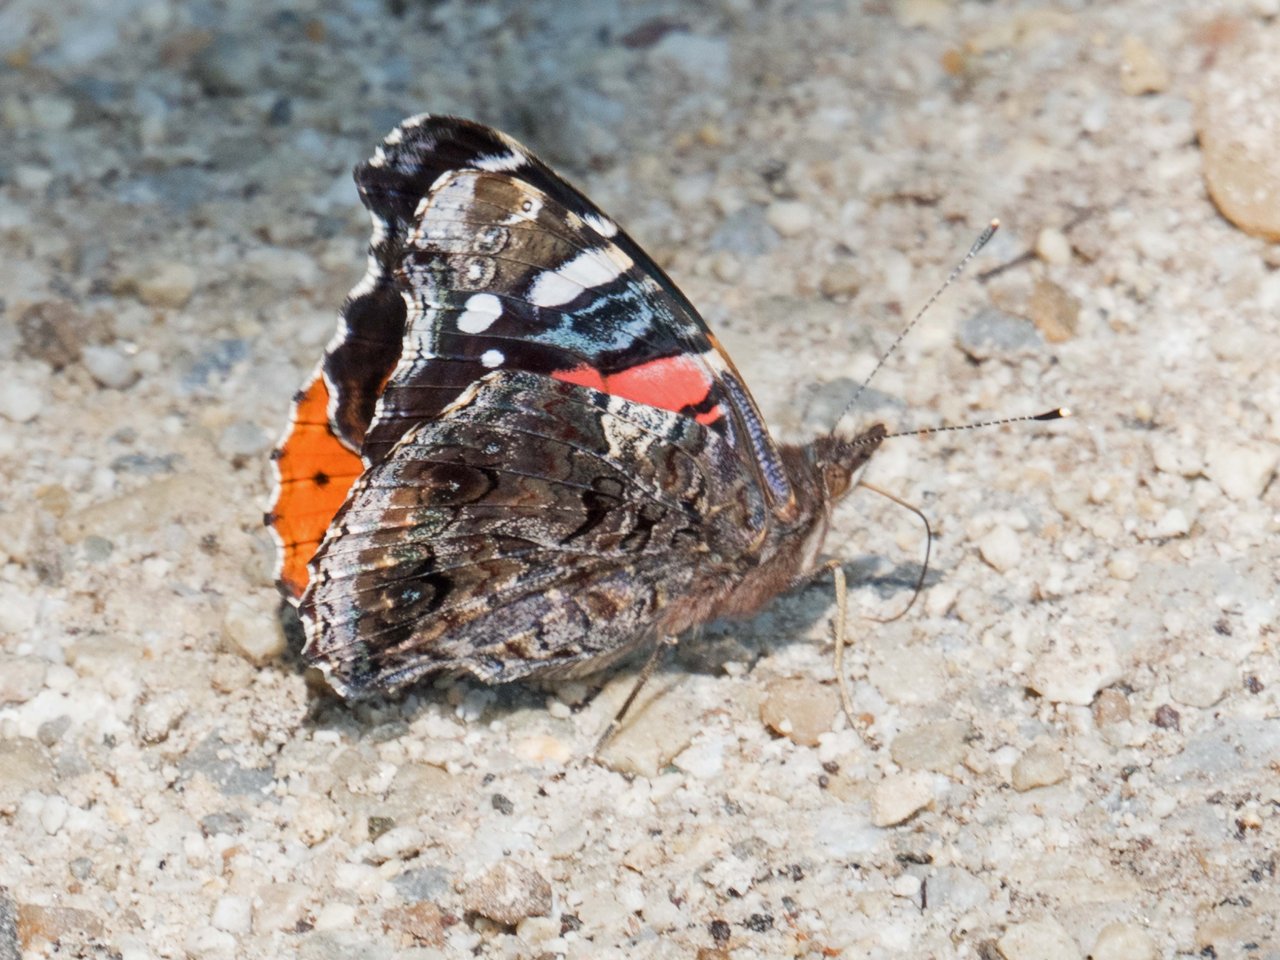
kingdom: Animalia
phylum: Arthropoda
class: Insecta
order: Lepidoptera
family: Nymphalidae
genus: Vanessa
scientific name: Vanessa atalanta
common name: Red Admiral
